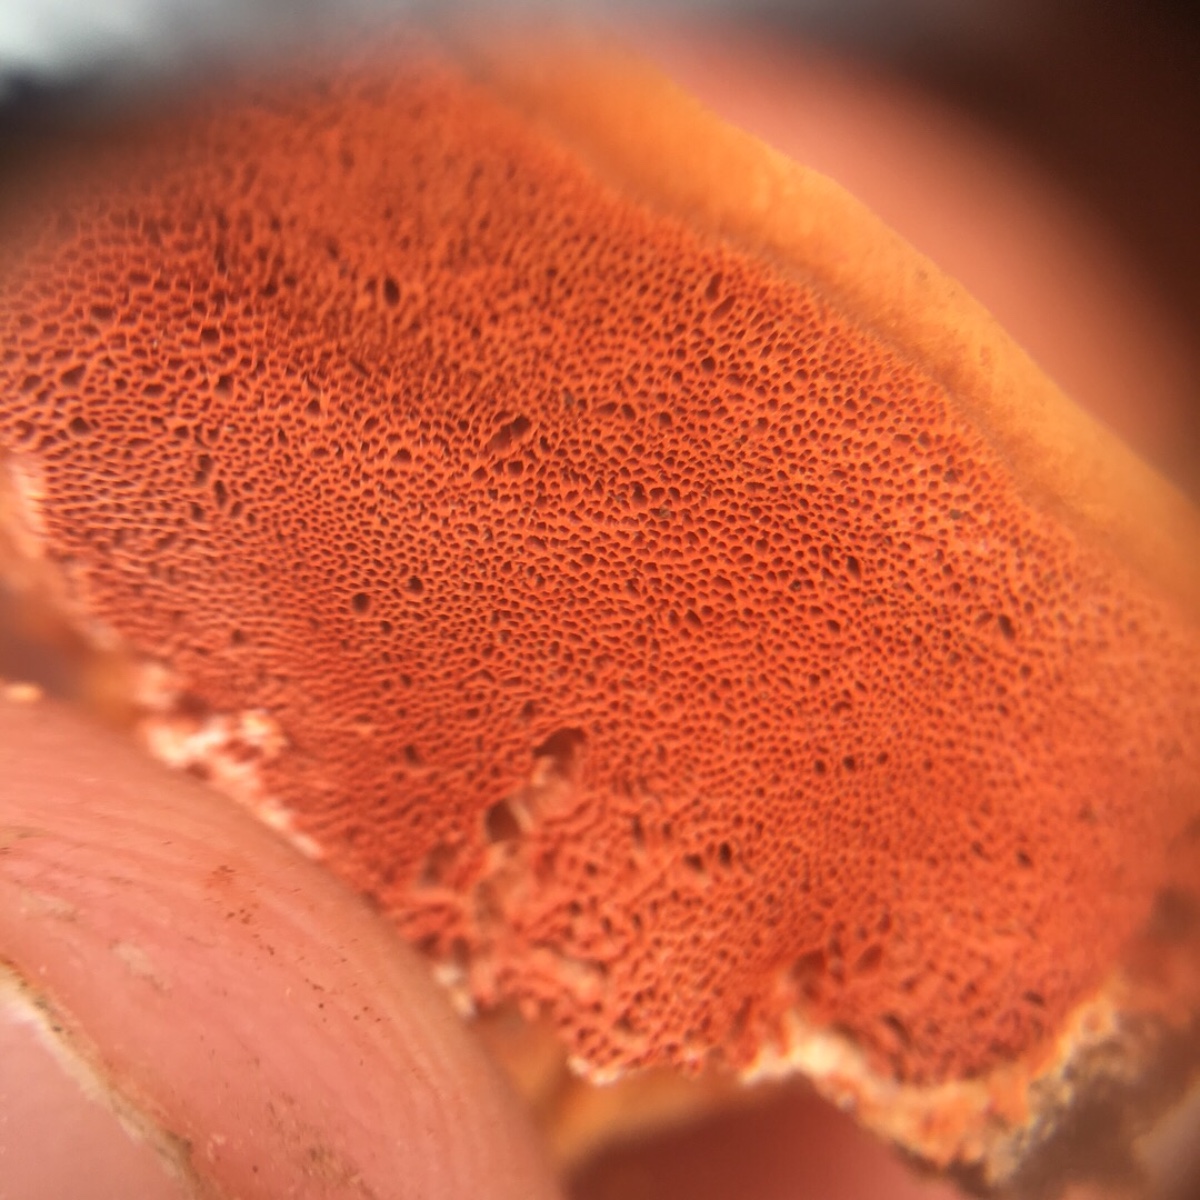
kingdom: Fungi
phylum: Basidiomycota
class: Agaricomycetes
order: Polyporales
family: Polyporaceae
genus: Pycnoporus
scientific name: Pycnoporus
